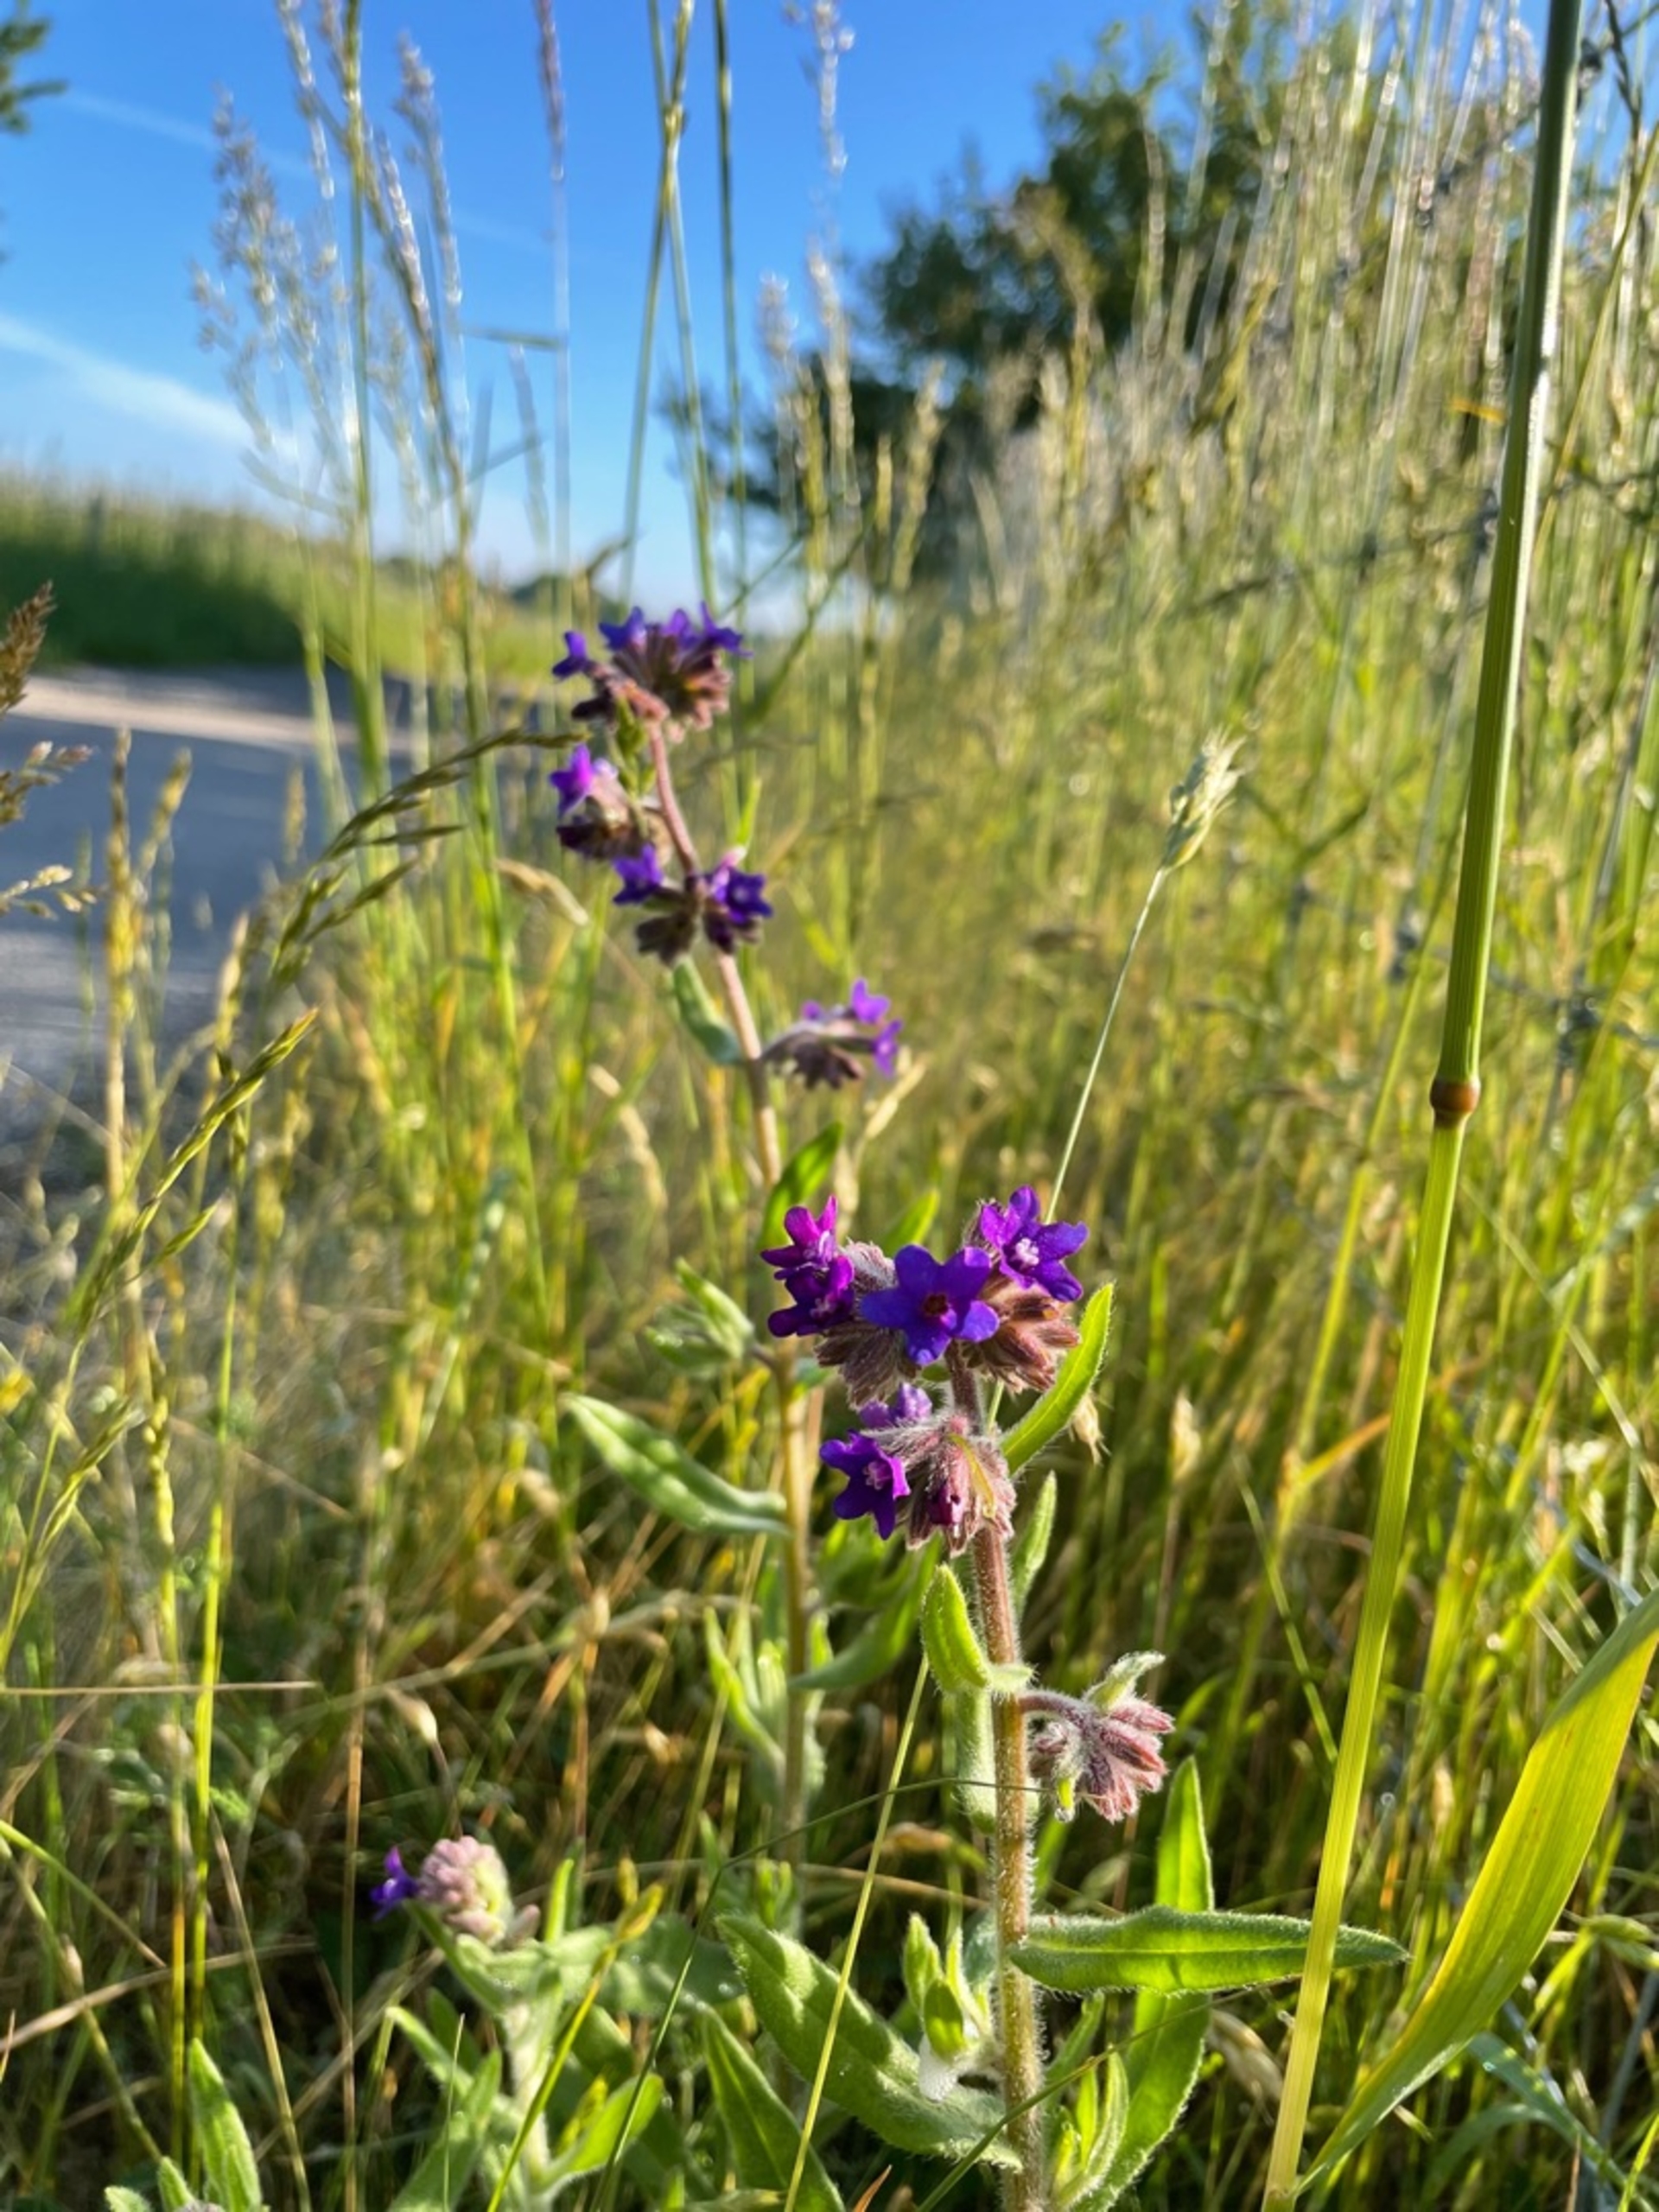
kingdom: Plantae
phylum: Tracheophyta
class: Magnoliopsida
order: Boraginales
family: Boraginaceae
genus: Anchusa
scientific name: Anchusa officinalis
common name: Læge-oksetunge
